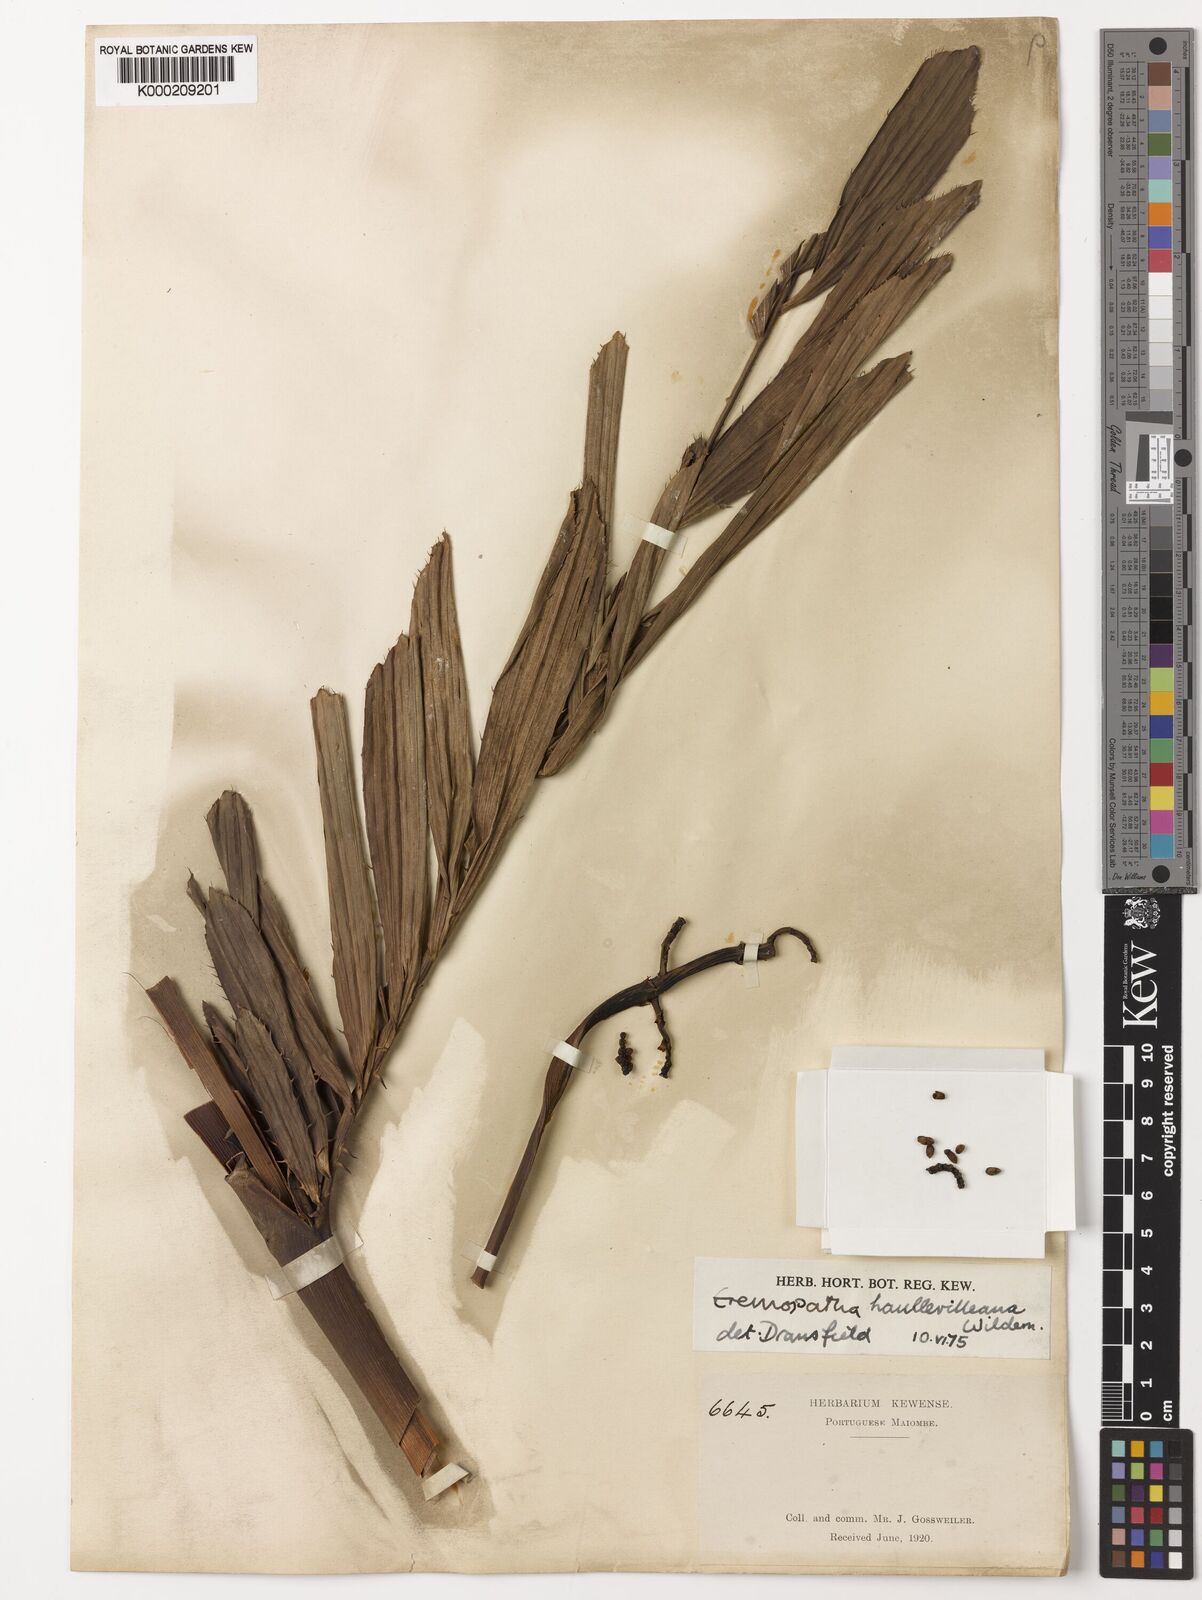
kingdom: Plantae
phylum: Tracheophyta
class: Liliopsida
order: Arecales
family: Arecaceae
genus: Eremospatha
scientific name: Eremospatha haullevilleana
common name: Rattan
